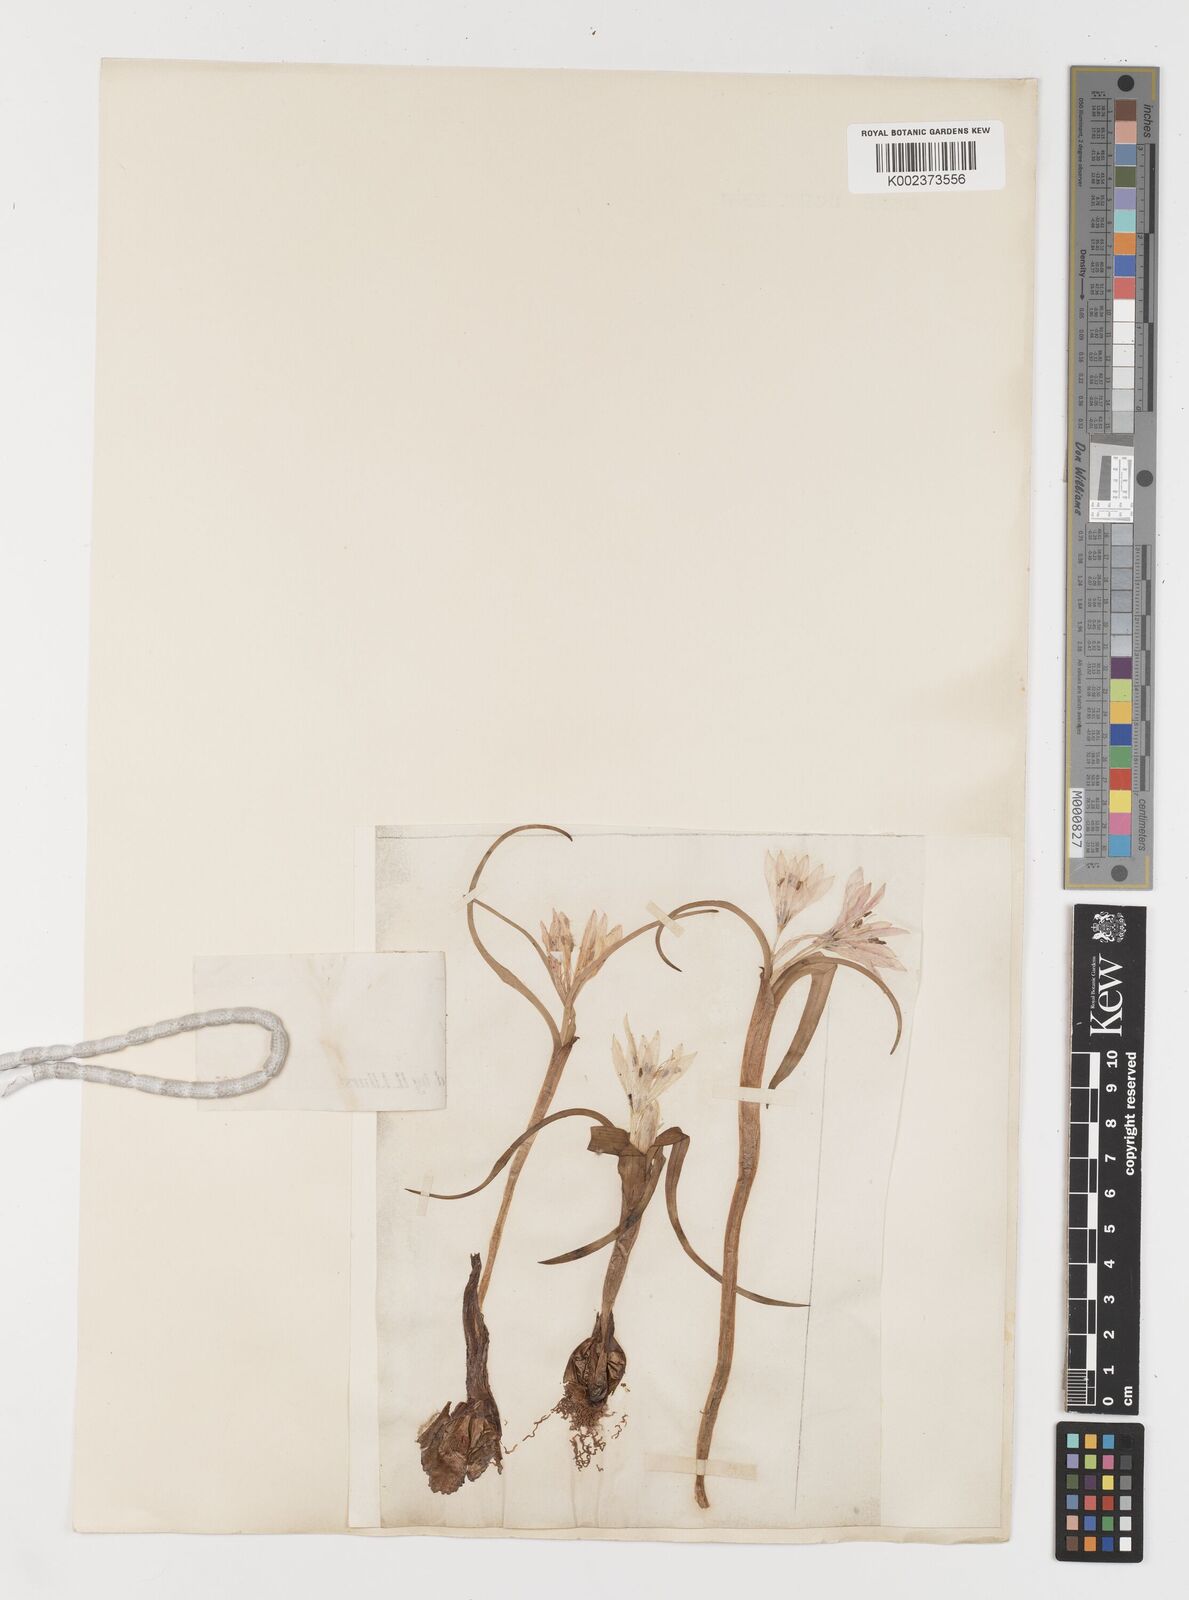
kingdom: Plantae
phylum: Tracheophyta
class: Liliopsida
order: Liliales
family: Colchicaceae
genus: Colchicum
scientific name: Colchicum ritchii
